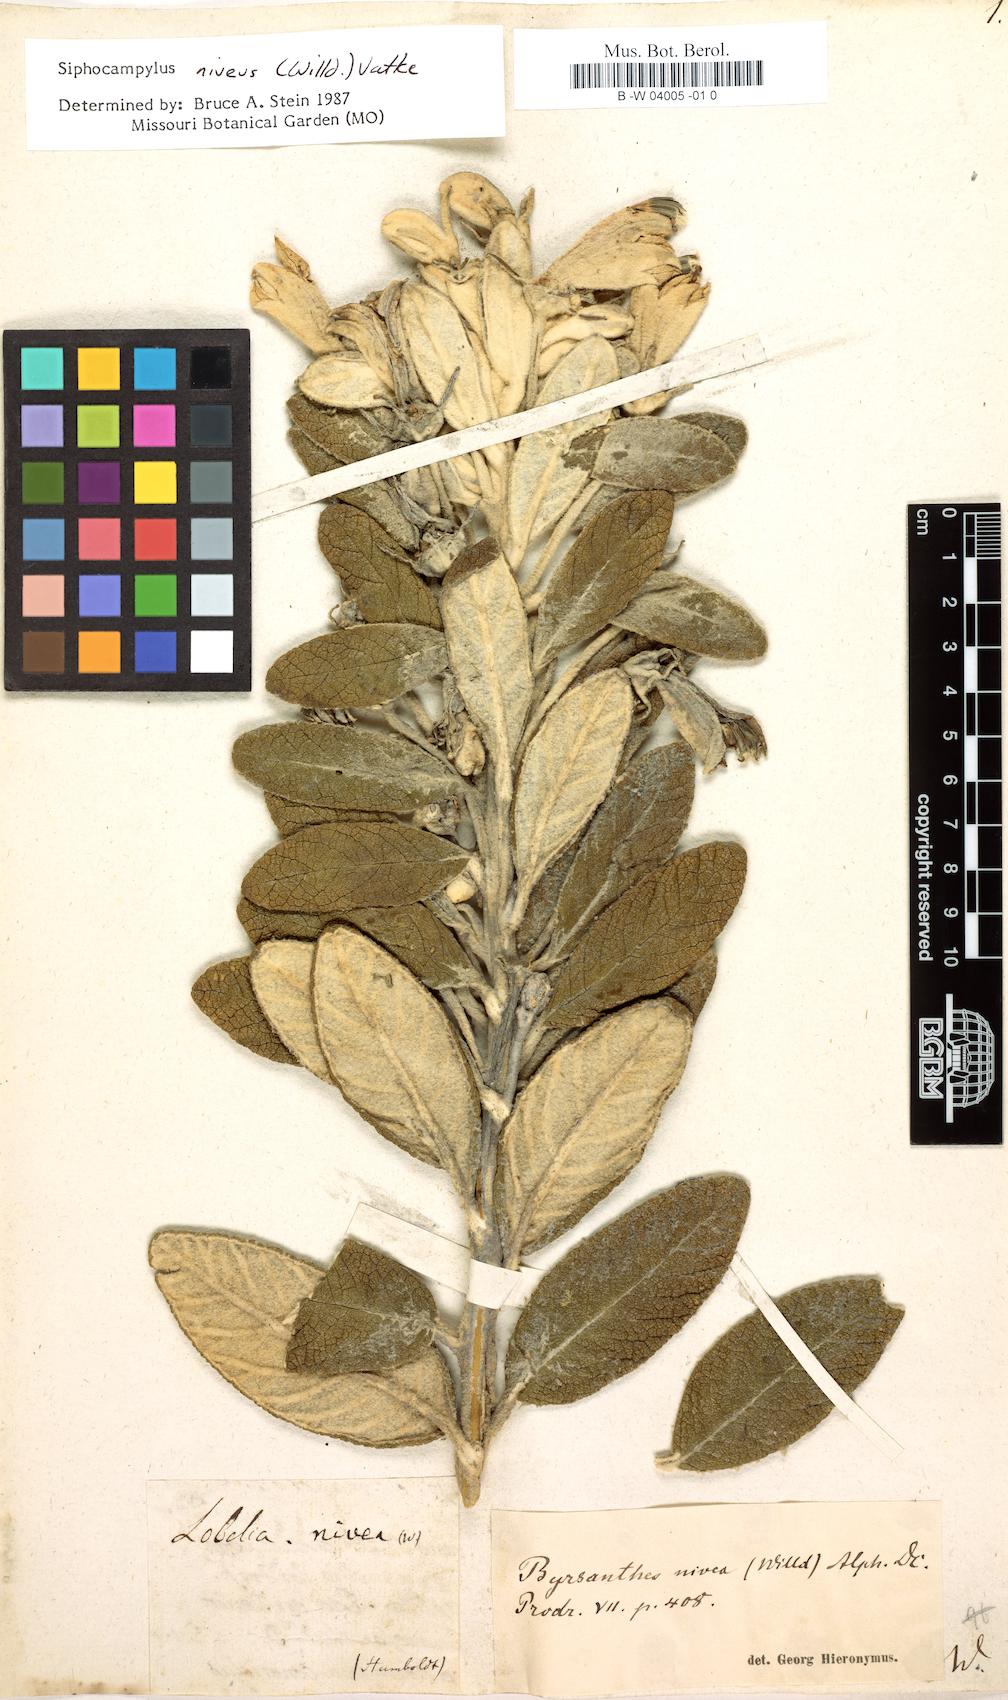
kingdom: Plantae
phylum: Tracheophyta
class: Magnoliopsida
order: Asterales
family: Campanulaceae
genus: Siphocampylus
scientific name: Siphocampylus niveus
